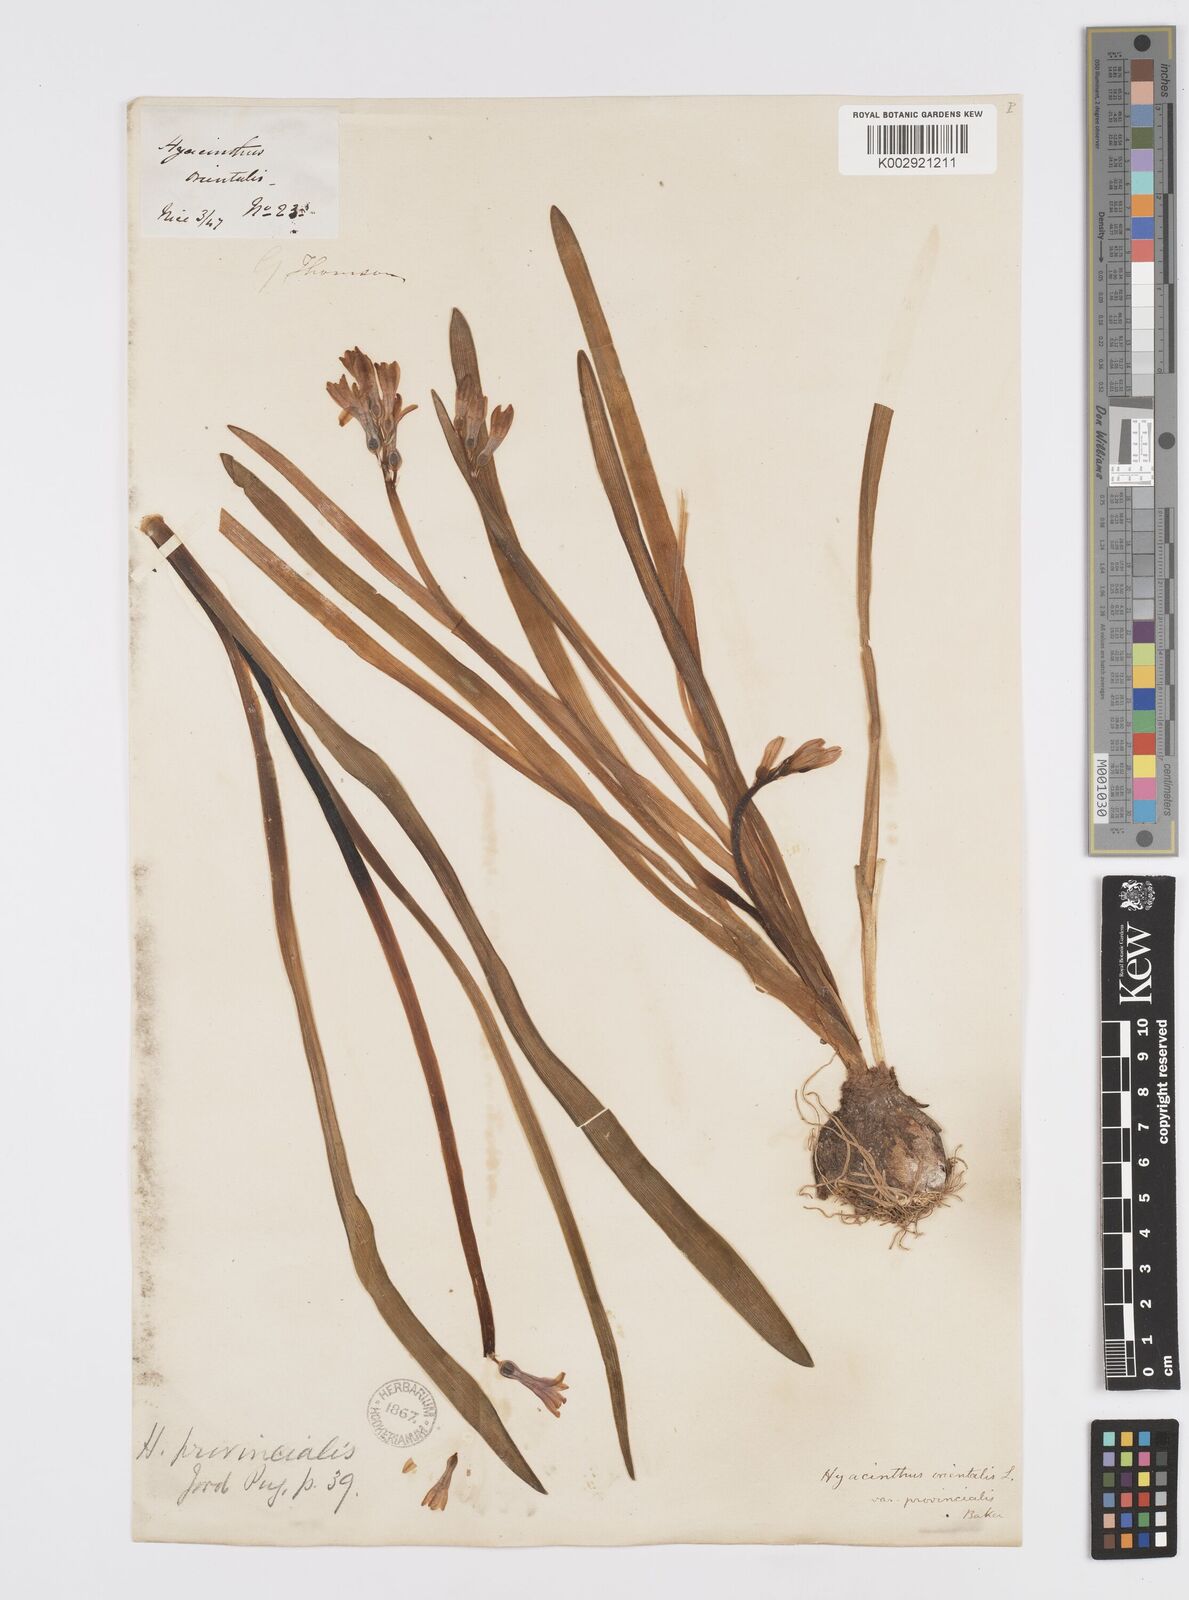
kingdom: Plantae
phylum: Tracheophyta
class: Liliopsida
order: Asparagales
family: Asparagaceae
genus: Hyacinthus
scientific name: Hyacinthus orientalis
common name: Hyacinth
